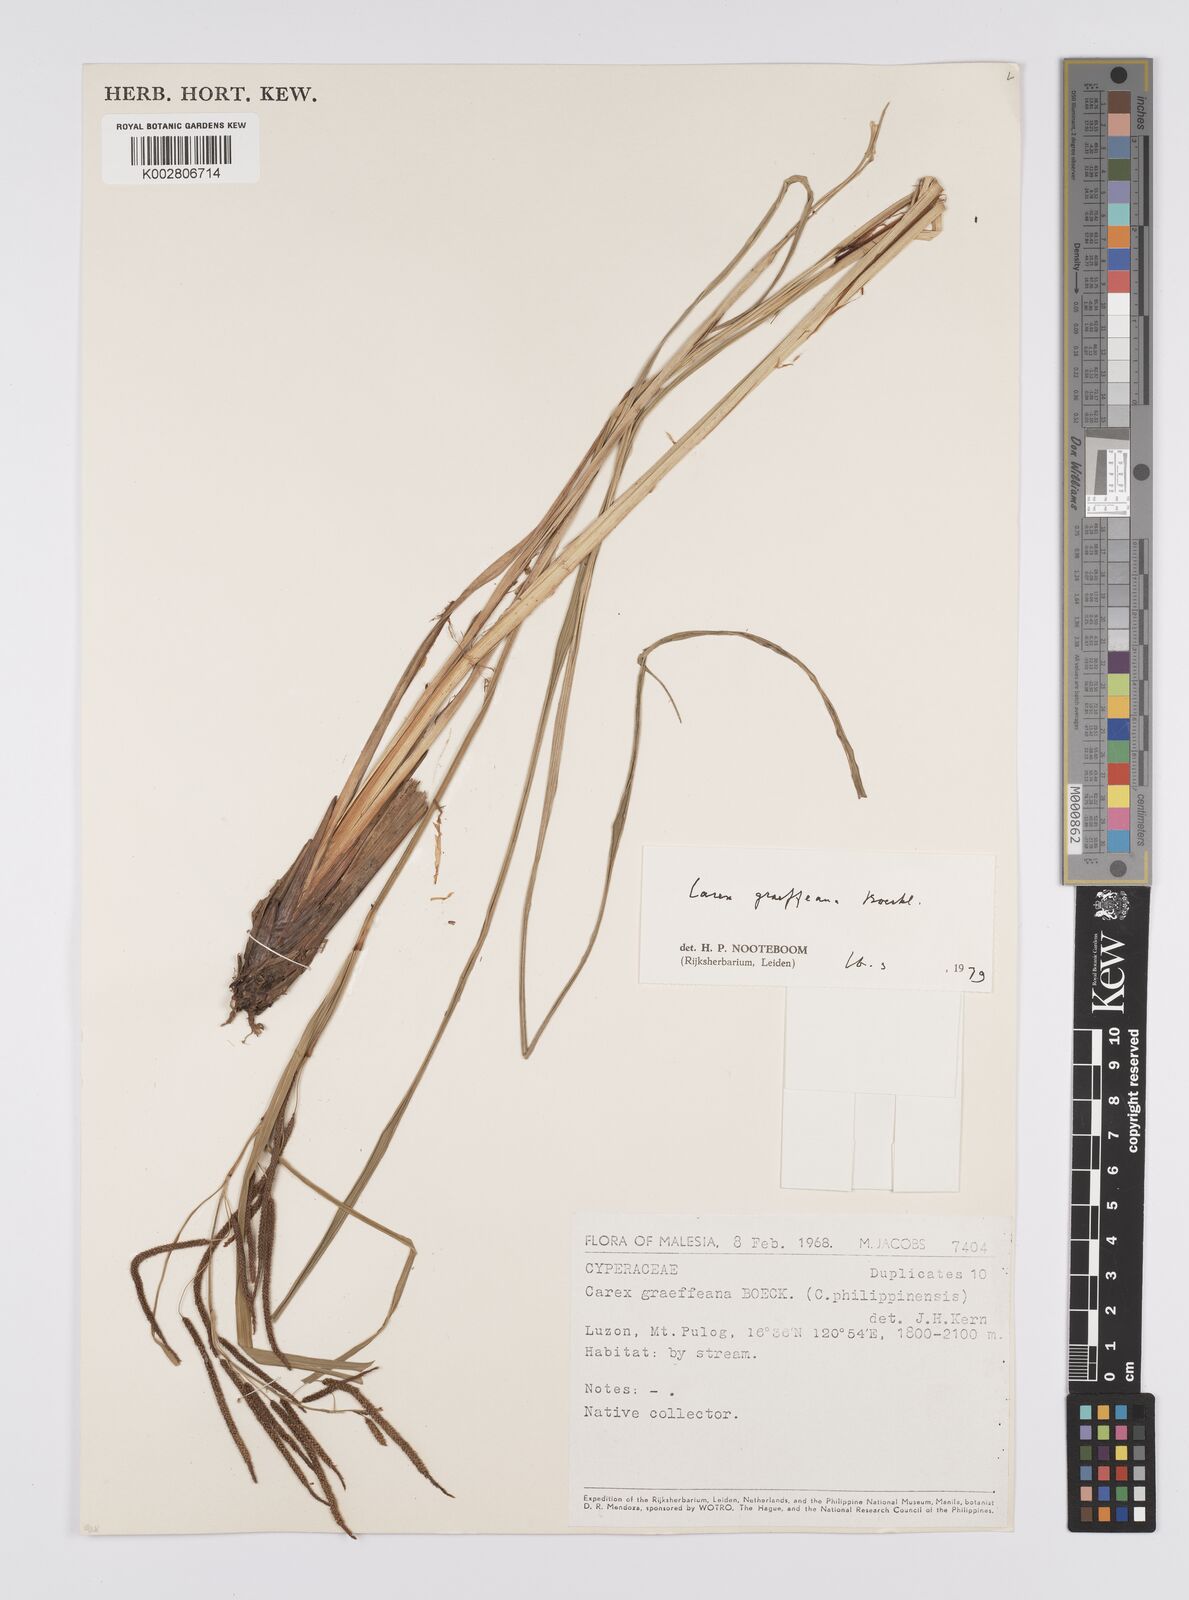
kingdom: Plantae
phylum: Tracheophyta
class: Liliopsida
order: Poales
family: Cyperaceae
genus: Carex
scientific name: Carex graeffeana
